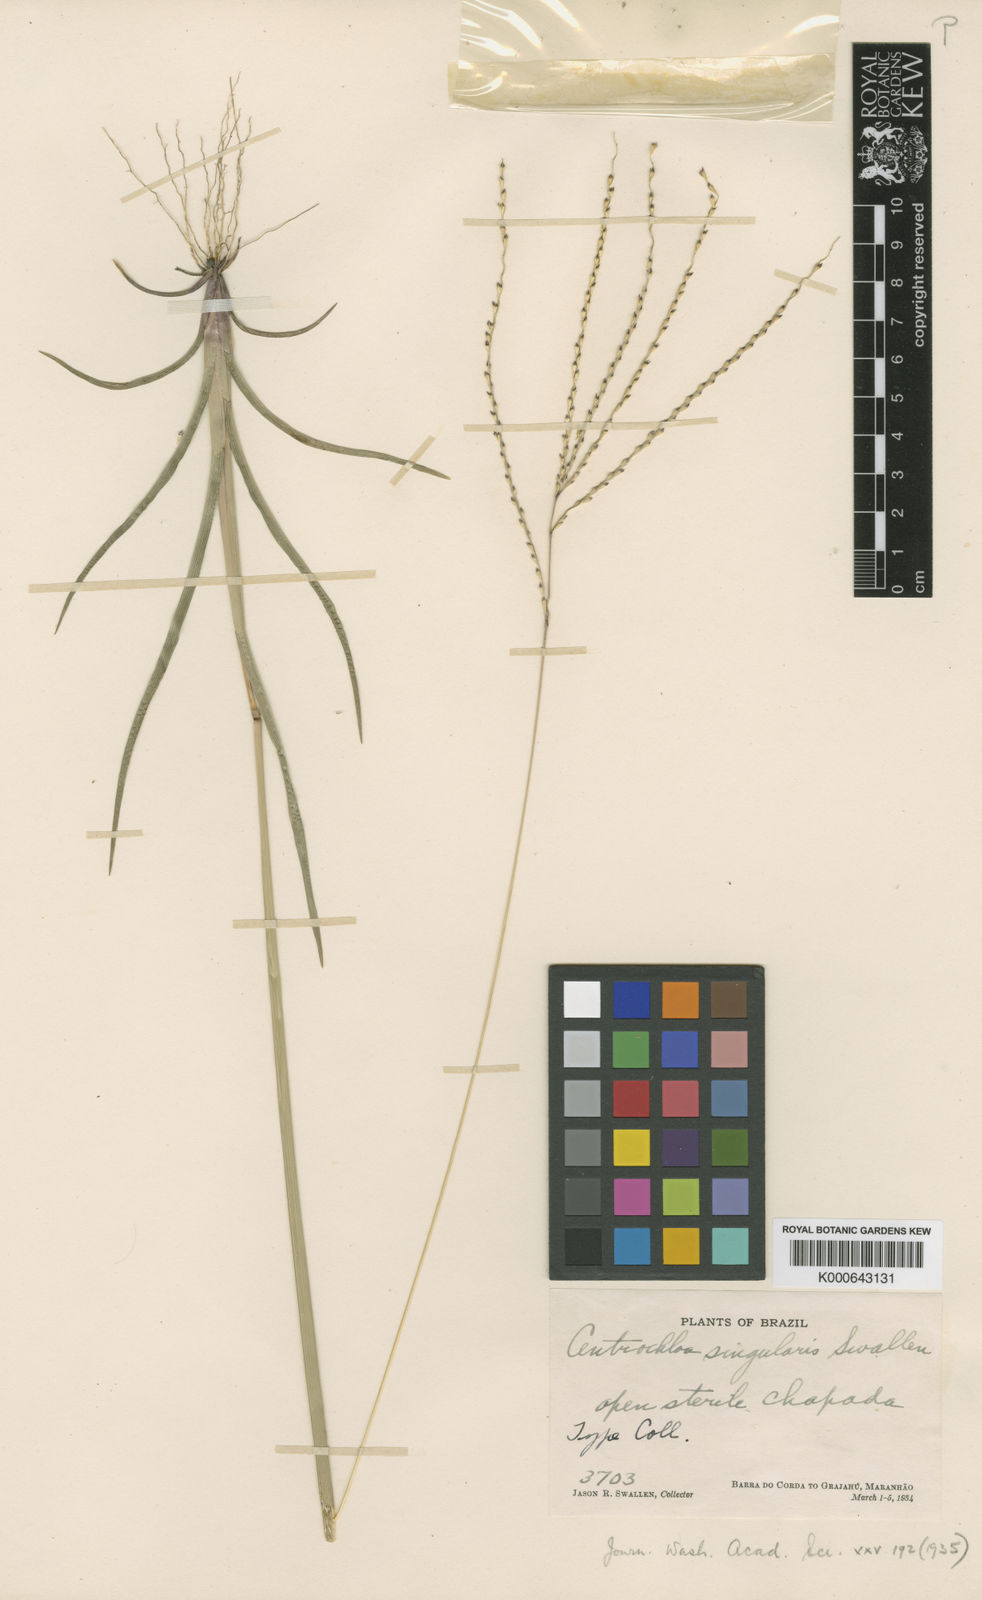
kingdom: Plantae
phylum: Tracheophyta
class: Liliopsida
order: Poales
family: Poaceae
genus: Axonopus
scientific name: Axonopus singularis
